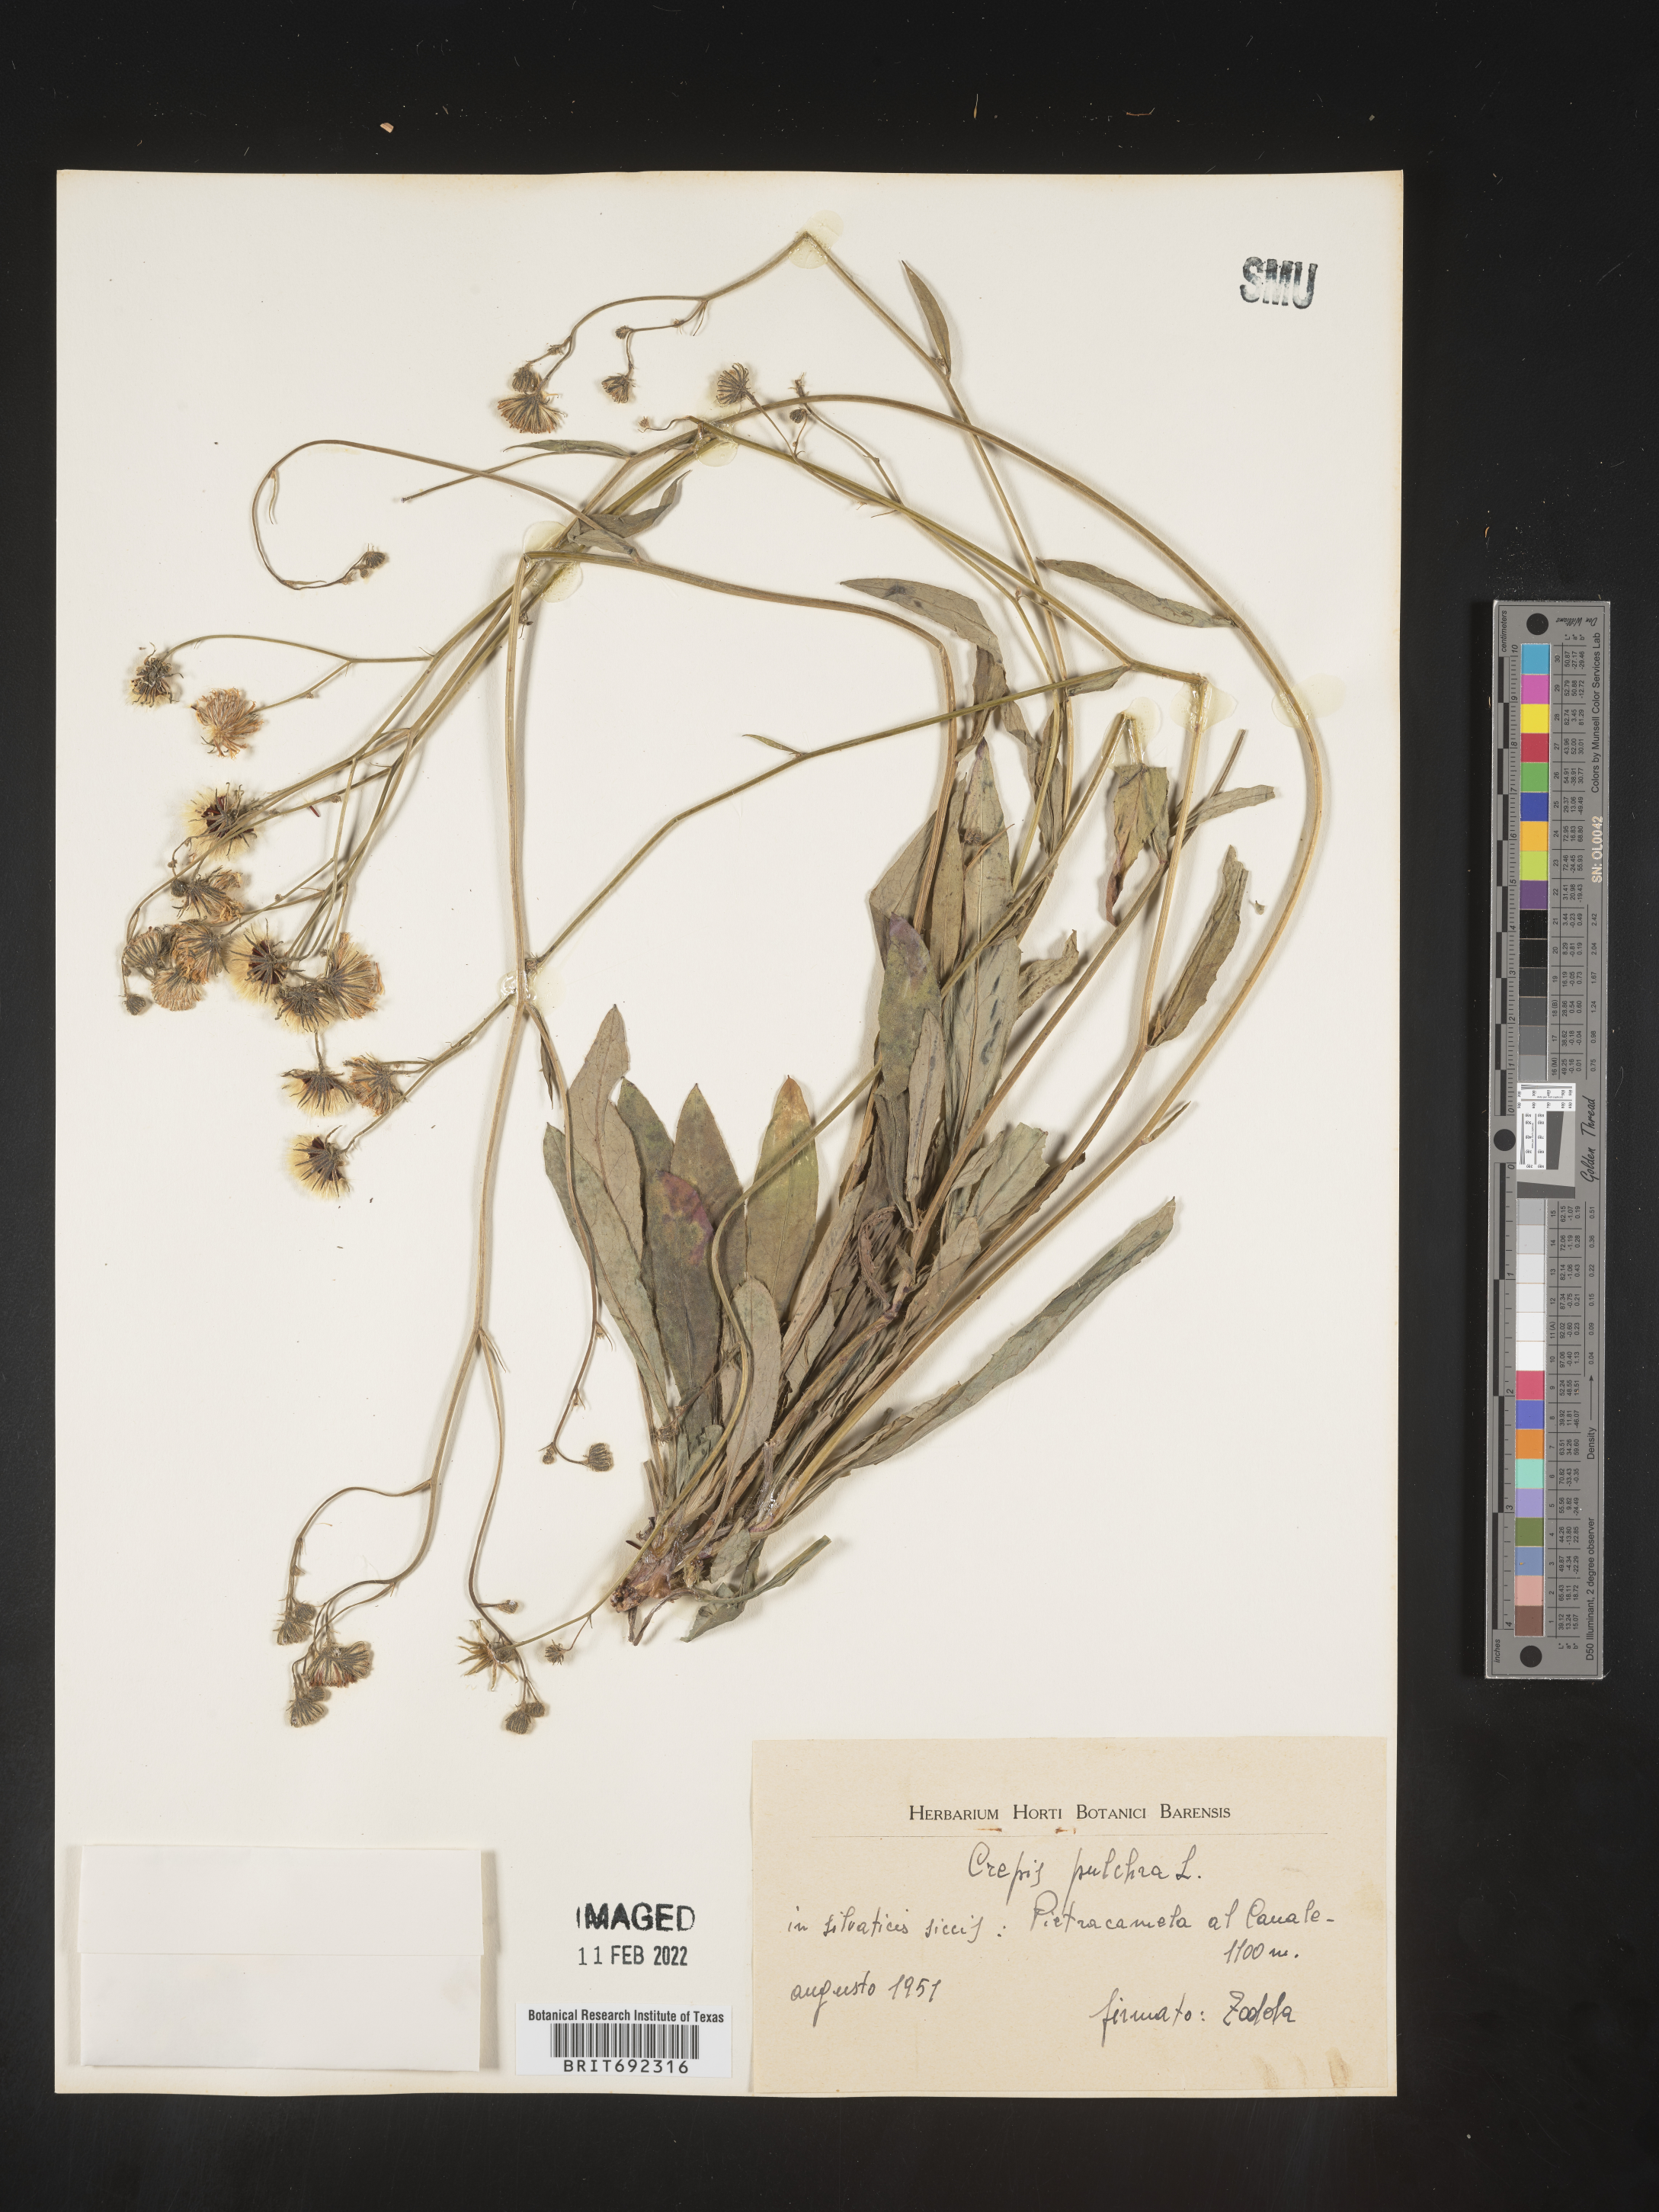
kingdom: Plantae
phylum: Tracheophyta
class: Magnoliopsida
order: Asterales
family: Asteraceae
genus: Crepis
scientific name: Crepis
